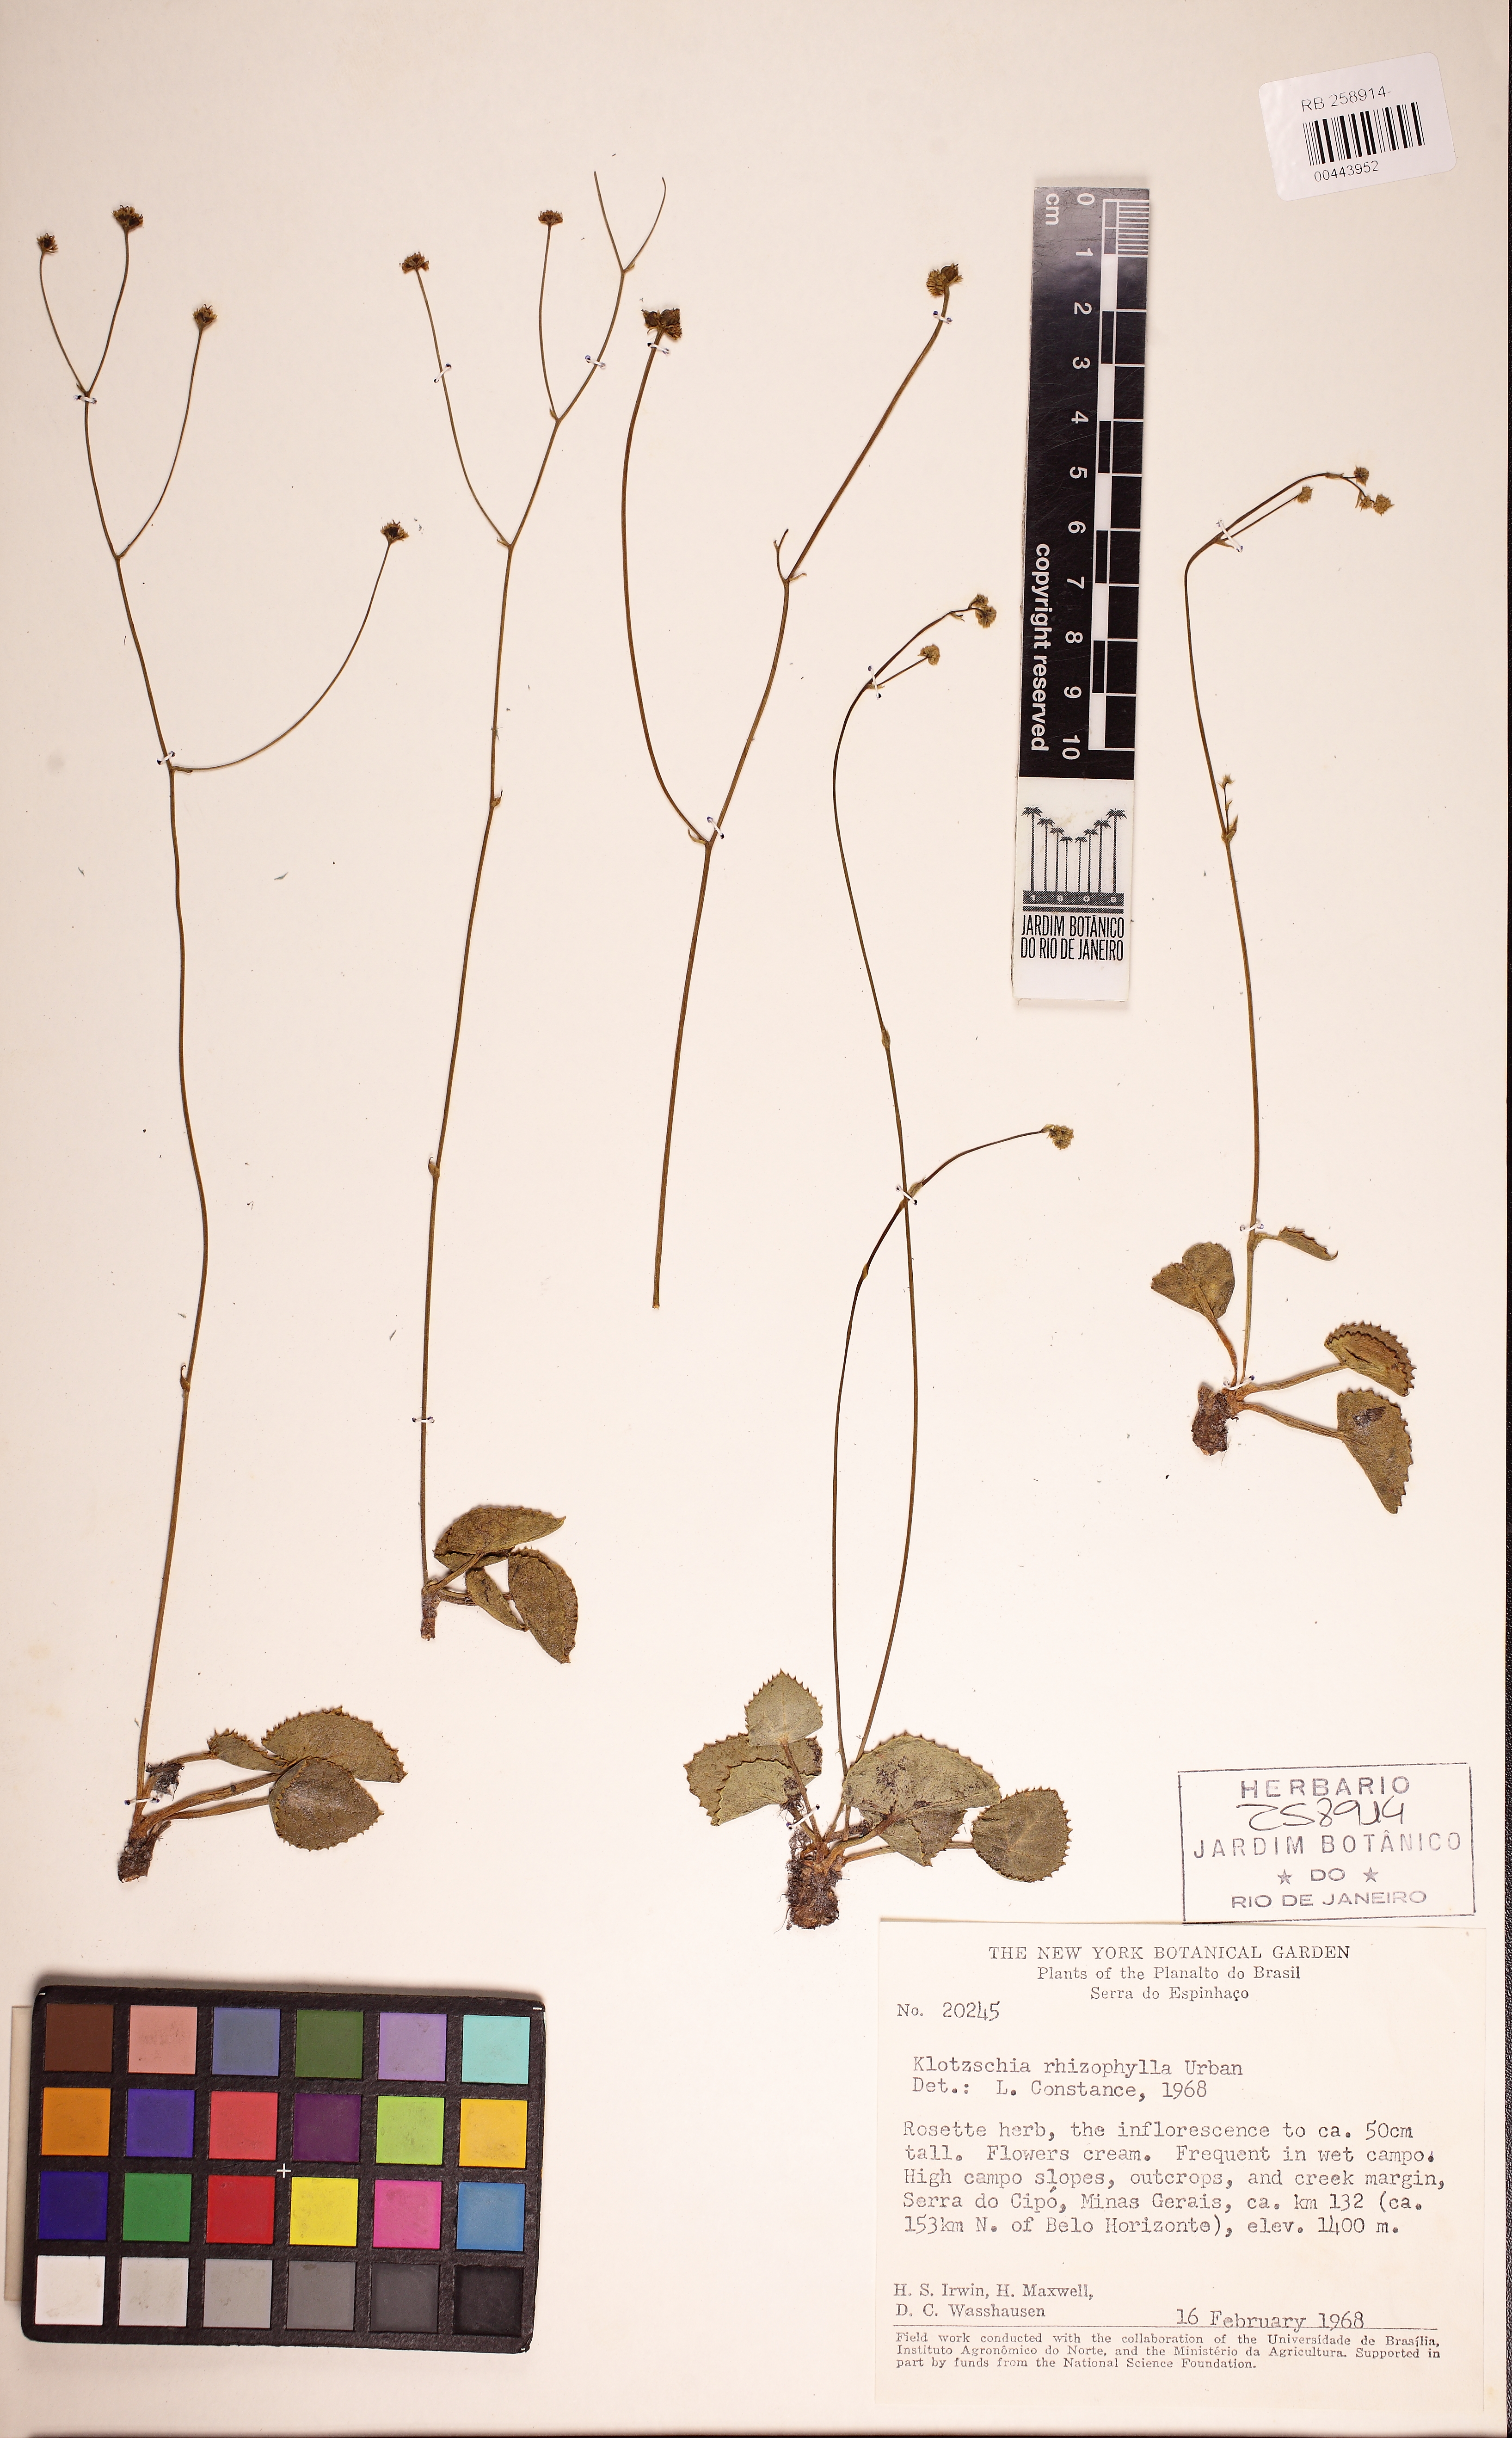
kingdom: Plantae
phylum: Tracheophyta
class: Magnoliopsida
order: Apiales
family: Apiaceae
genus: Klotzschia
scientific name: Klotzschia rhizophylla
